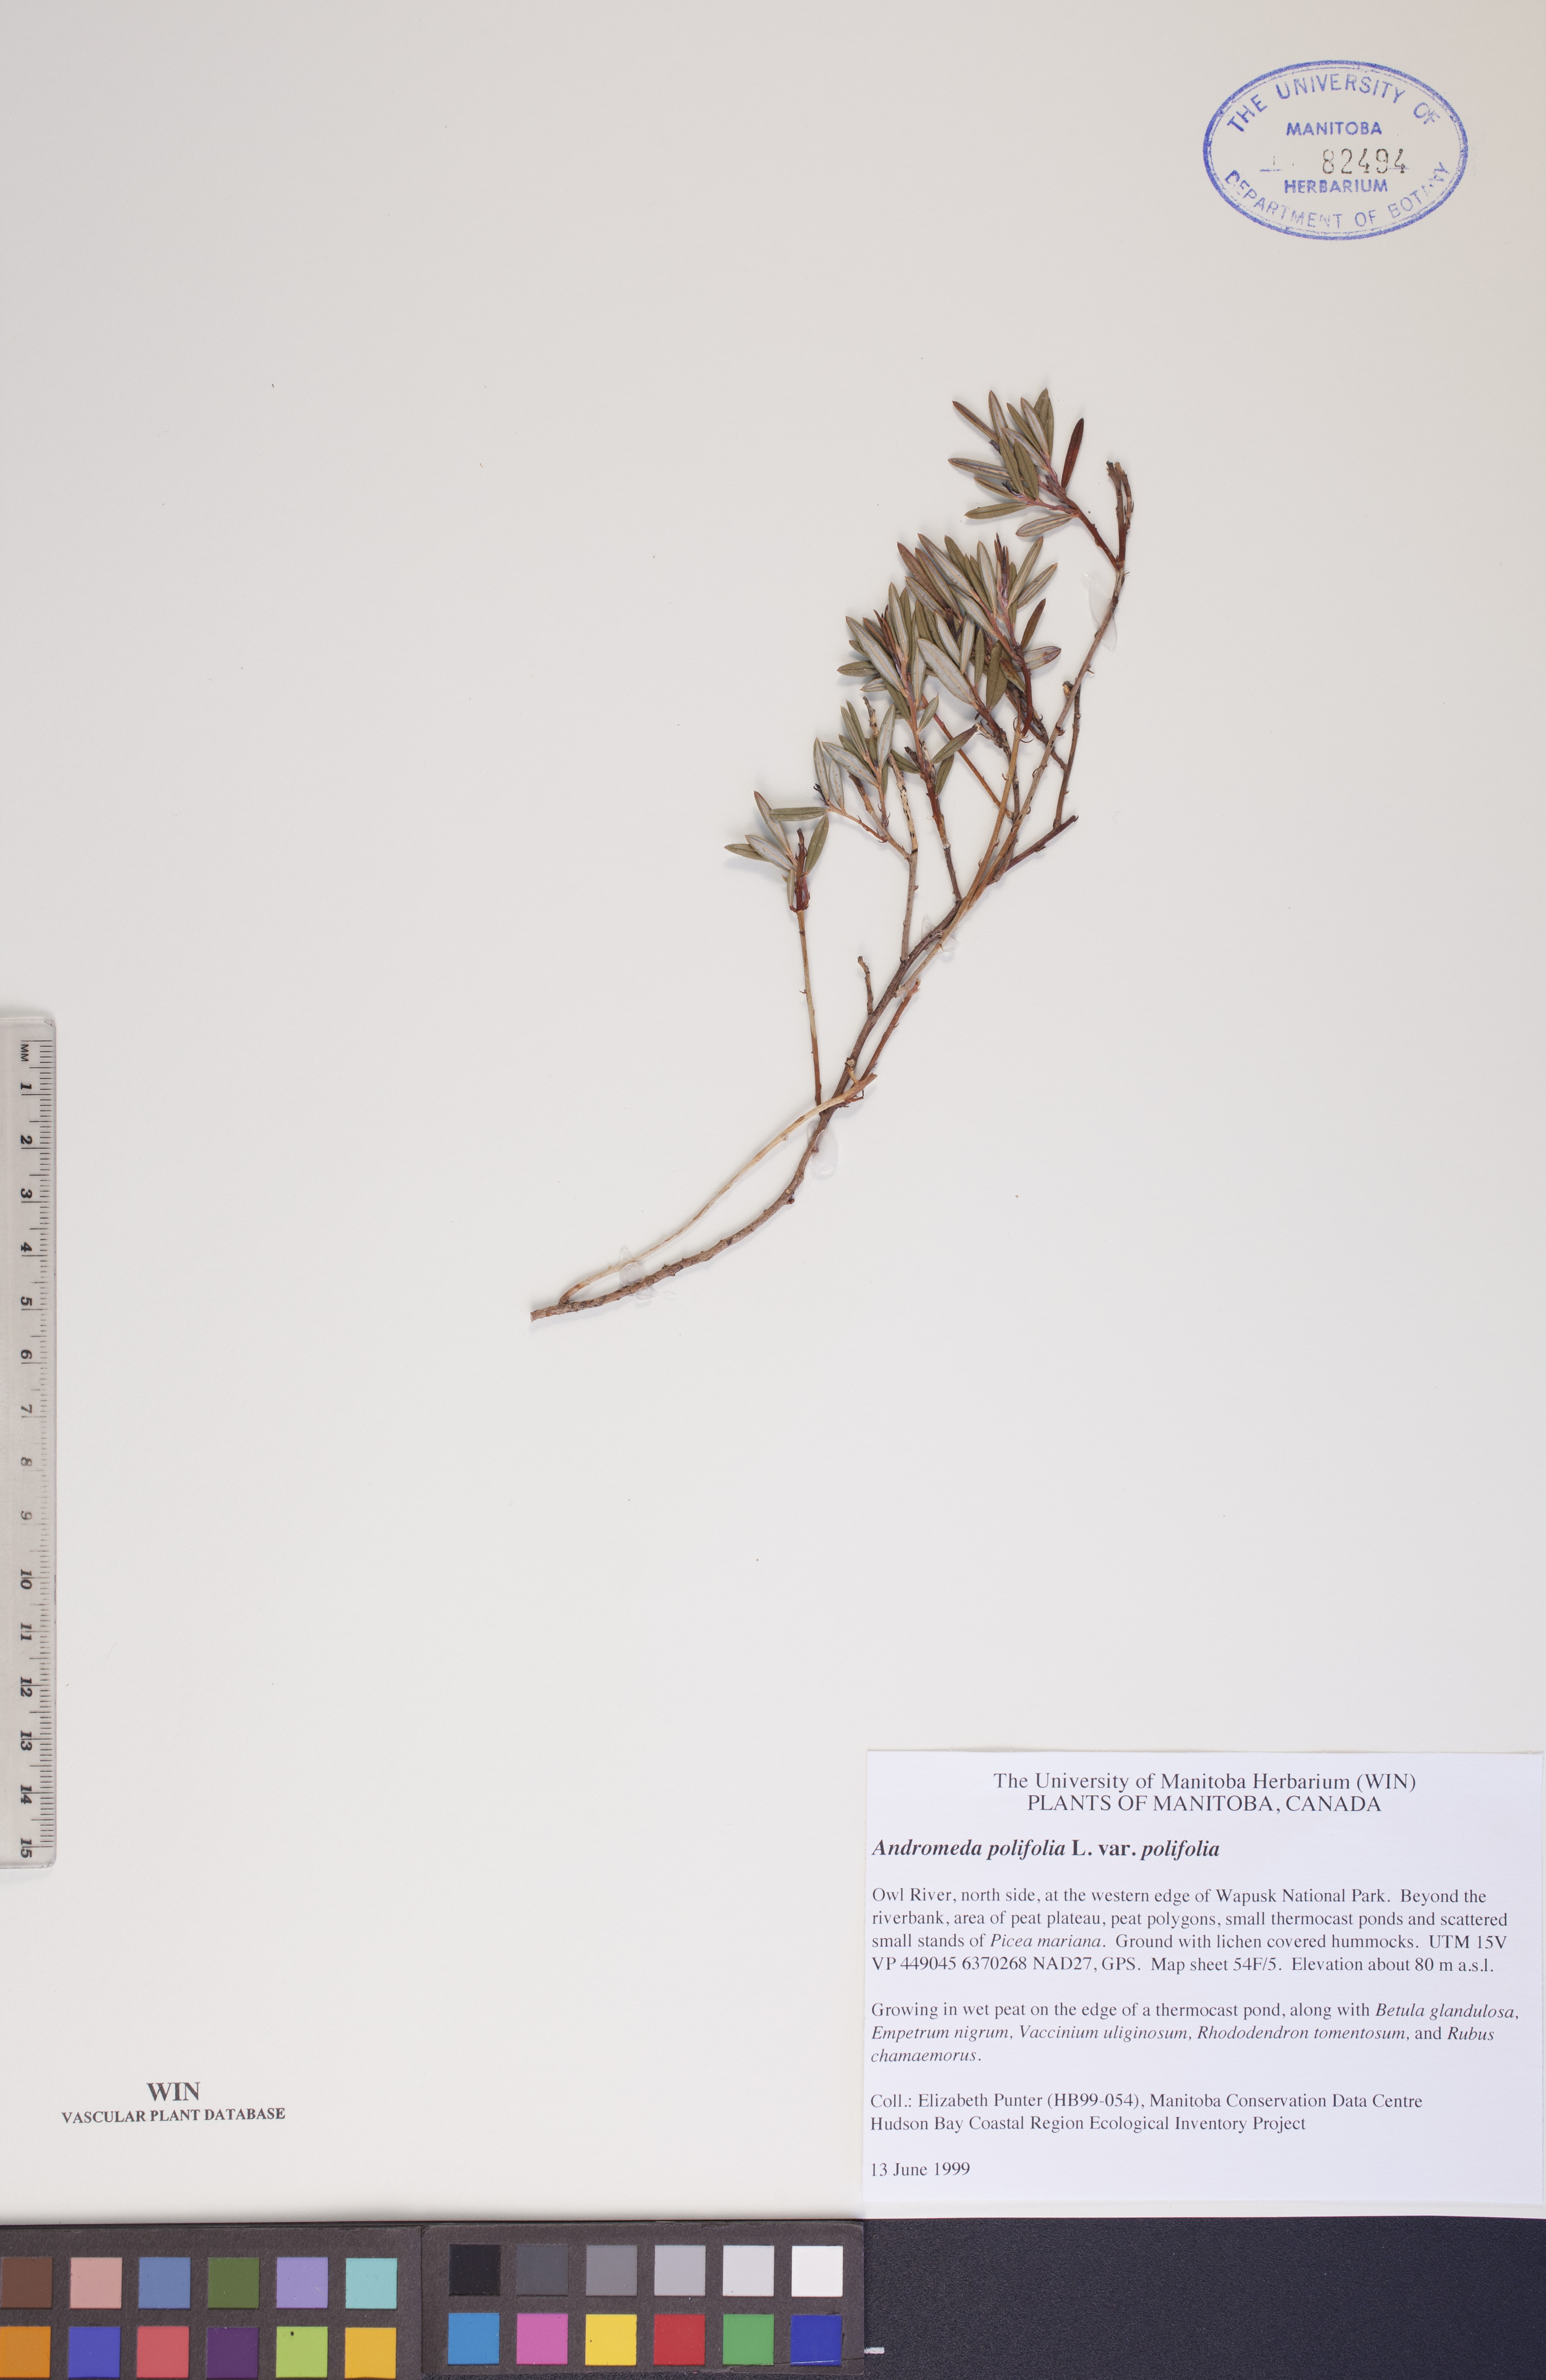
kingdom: Plantae
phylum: Tracheophyta
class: Magnoliopsida
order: Ericales
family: Ericaceae
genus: Andromeda
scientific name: Andromeda polifolia
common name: Bog-rosemary
